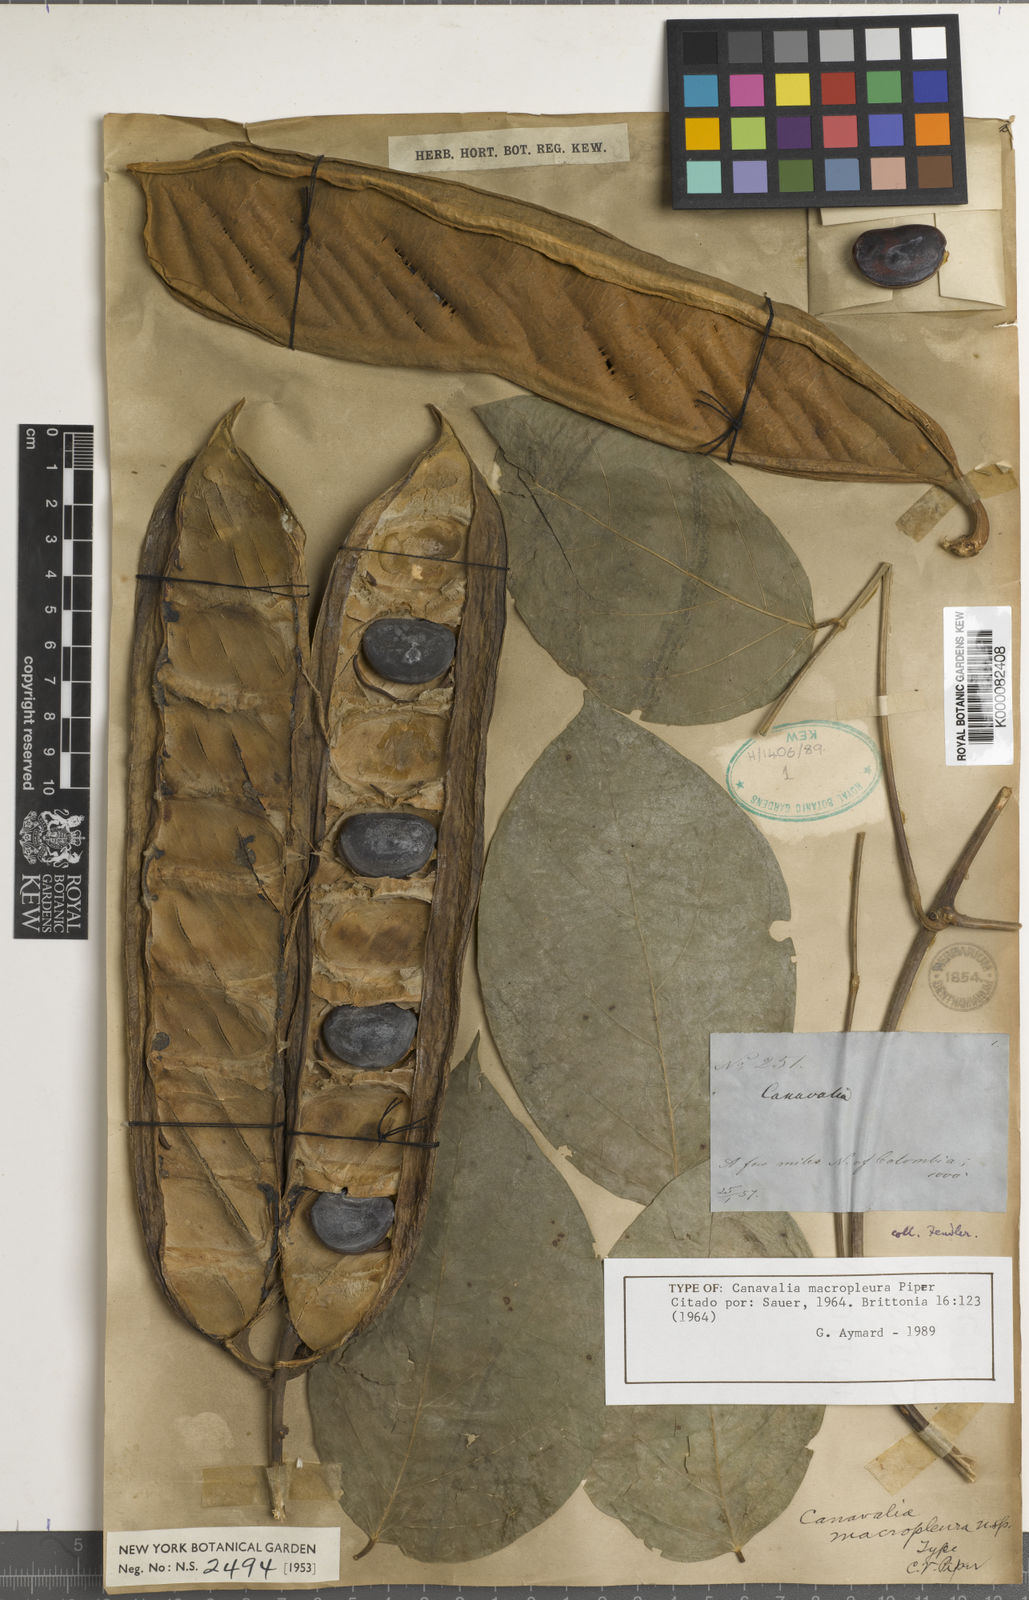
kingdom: Plantae
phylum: Tracheophyta
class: Magnoliopsida
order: Fabales
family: Fabaceae
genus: Canavalia
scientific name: Canavalia macropleura
